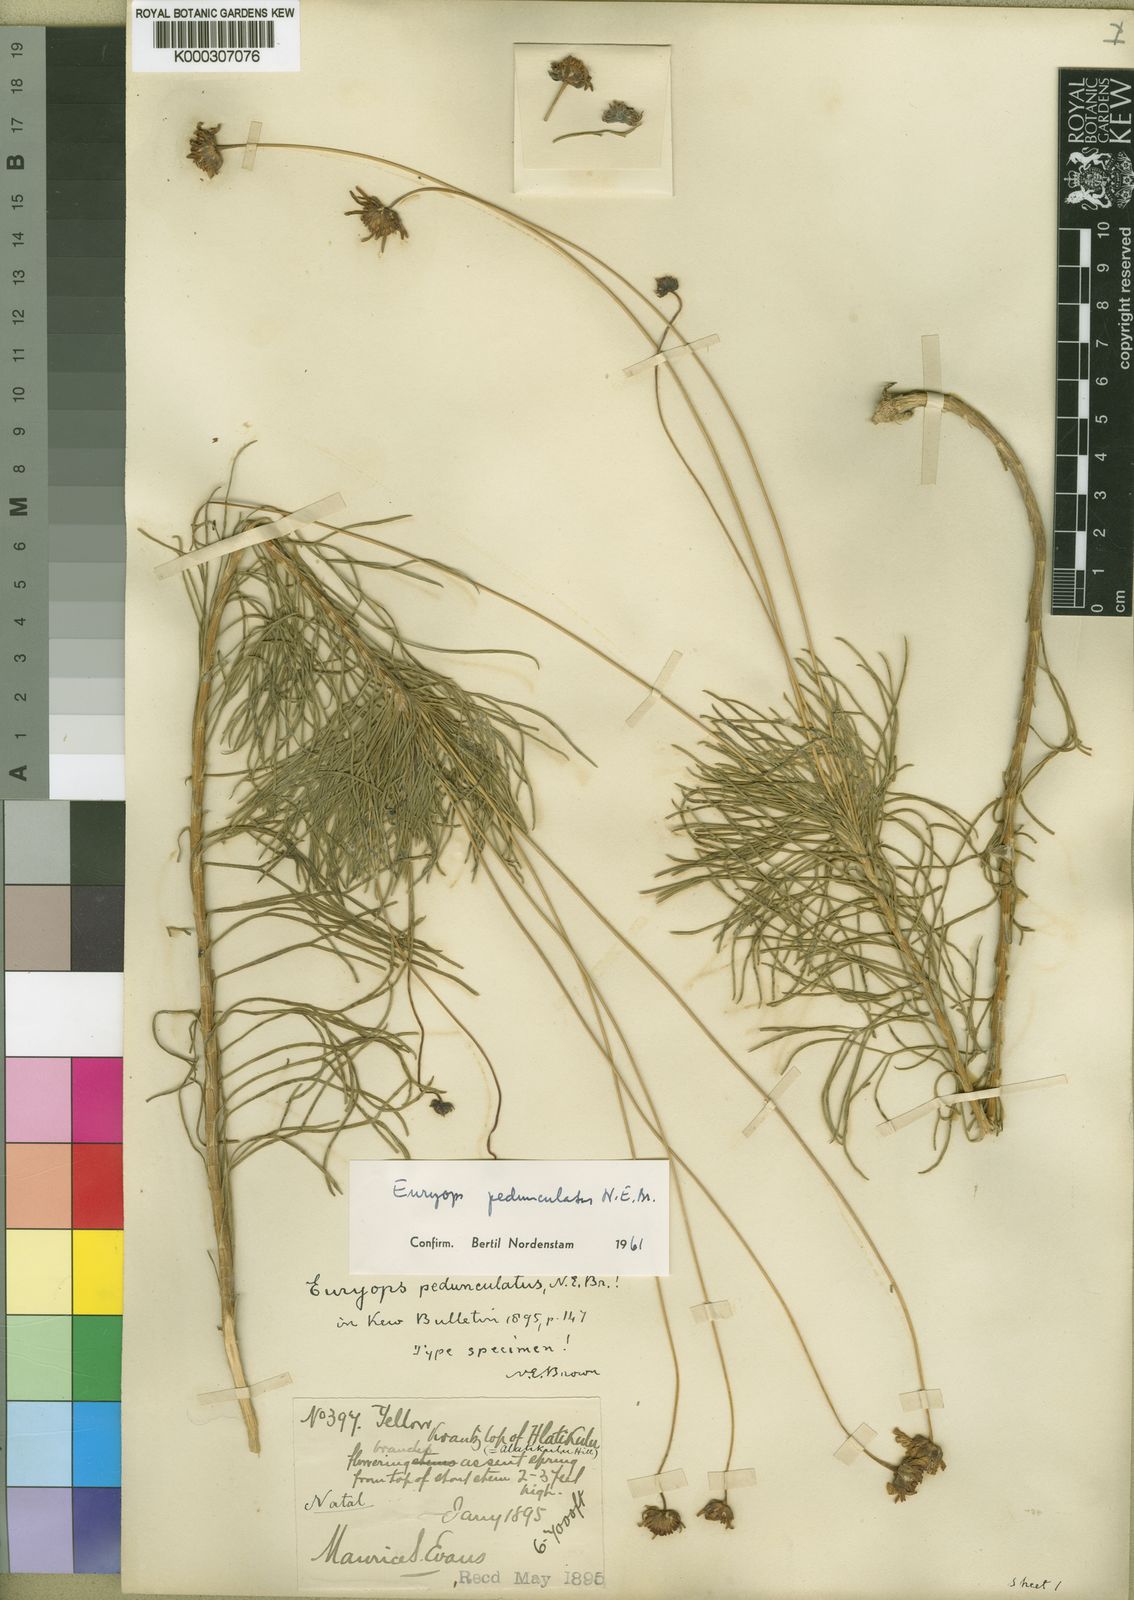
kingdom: Plantae
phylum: Tracheophyta
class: Magnoliopsida
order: Asterales
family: Asteraceae
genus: Euryops
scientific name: Euryops pedunculatus
